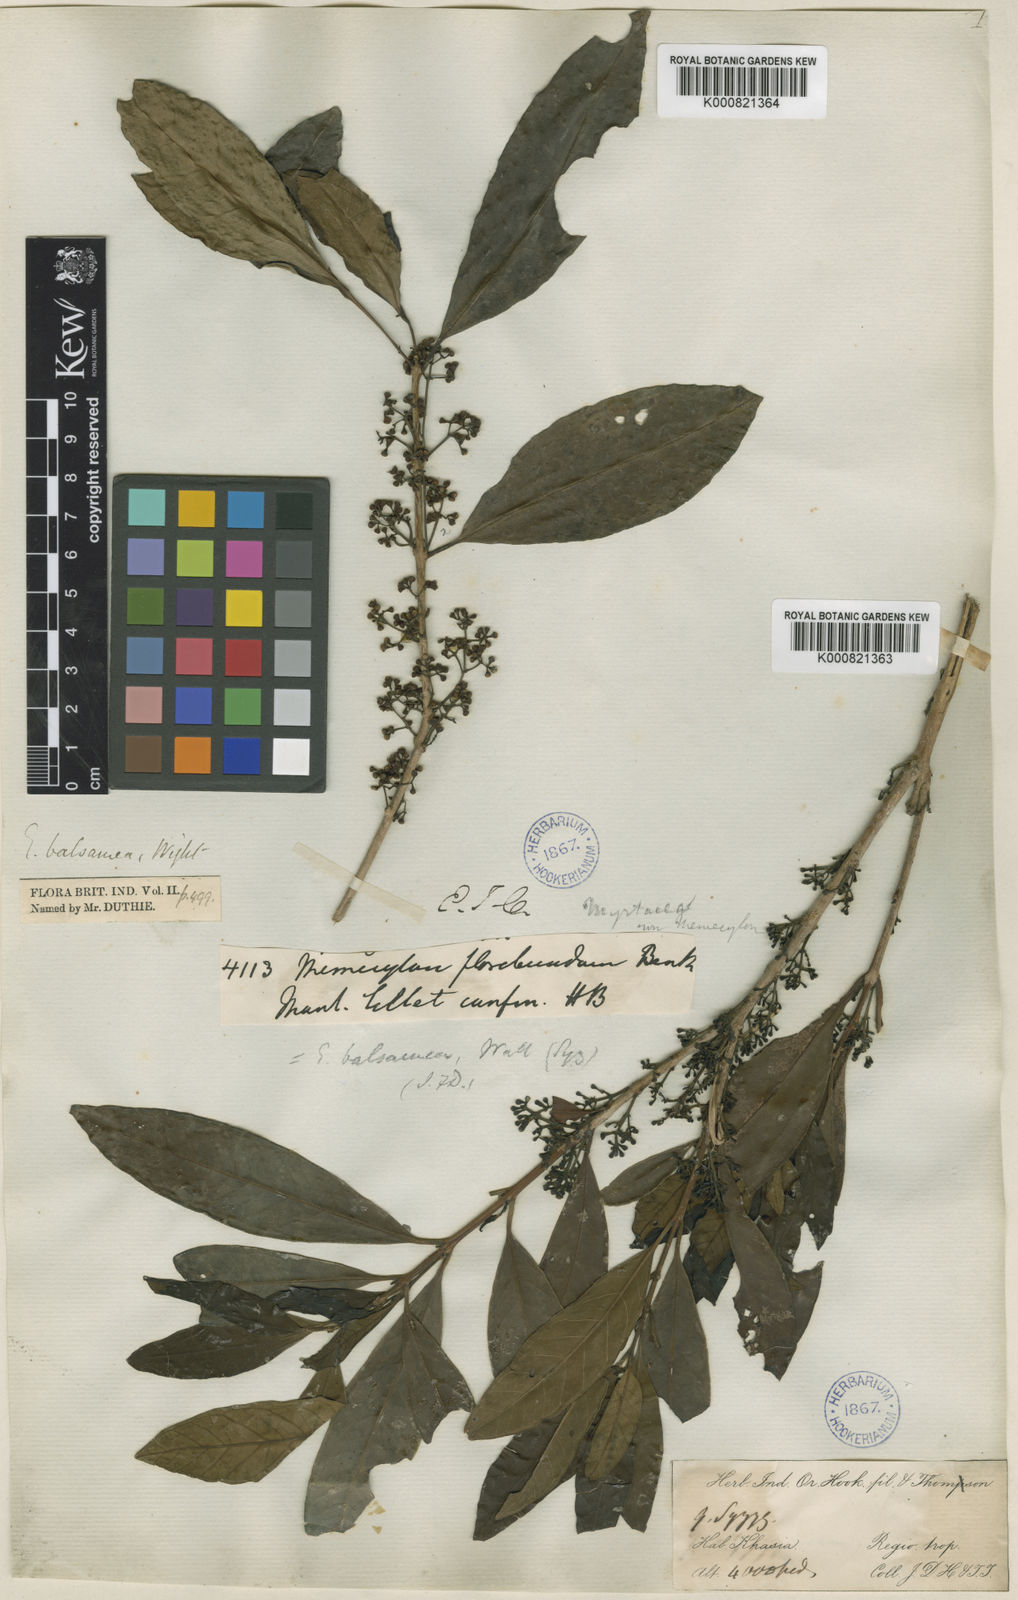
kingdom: Plantae
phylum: Tracheophyta
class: Magnoliopsida
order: Myrtales
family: Myrtaceae
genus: Syzygium
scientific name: Syzygium balsameum
